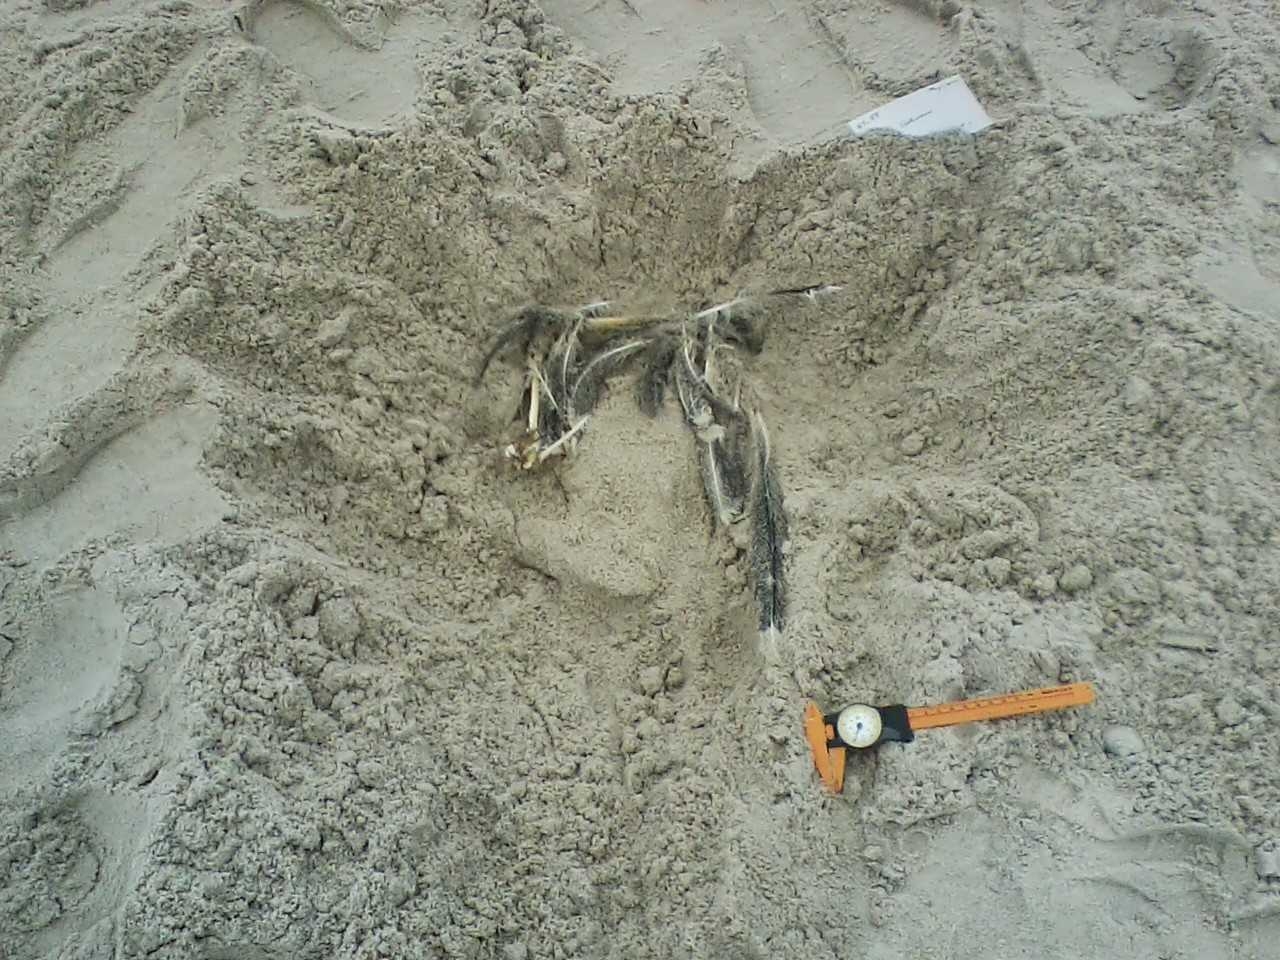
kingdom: Animalia
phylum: Chordata
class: Aves
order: Suliformes
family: Phalacrocoracidae
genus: Phalacrocorax
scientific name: Phalacrocorax auritus
